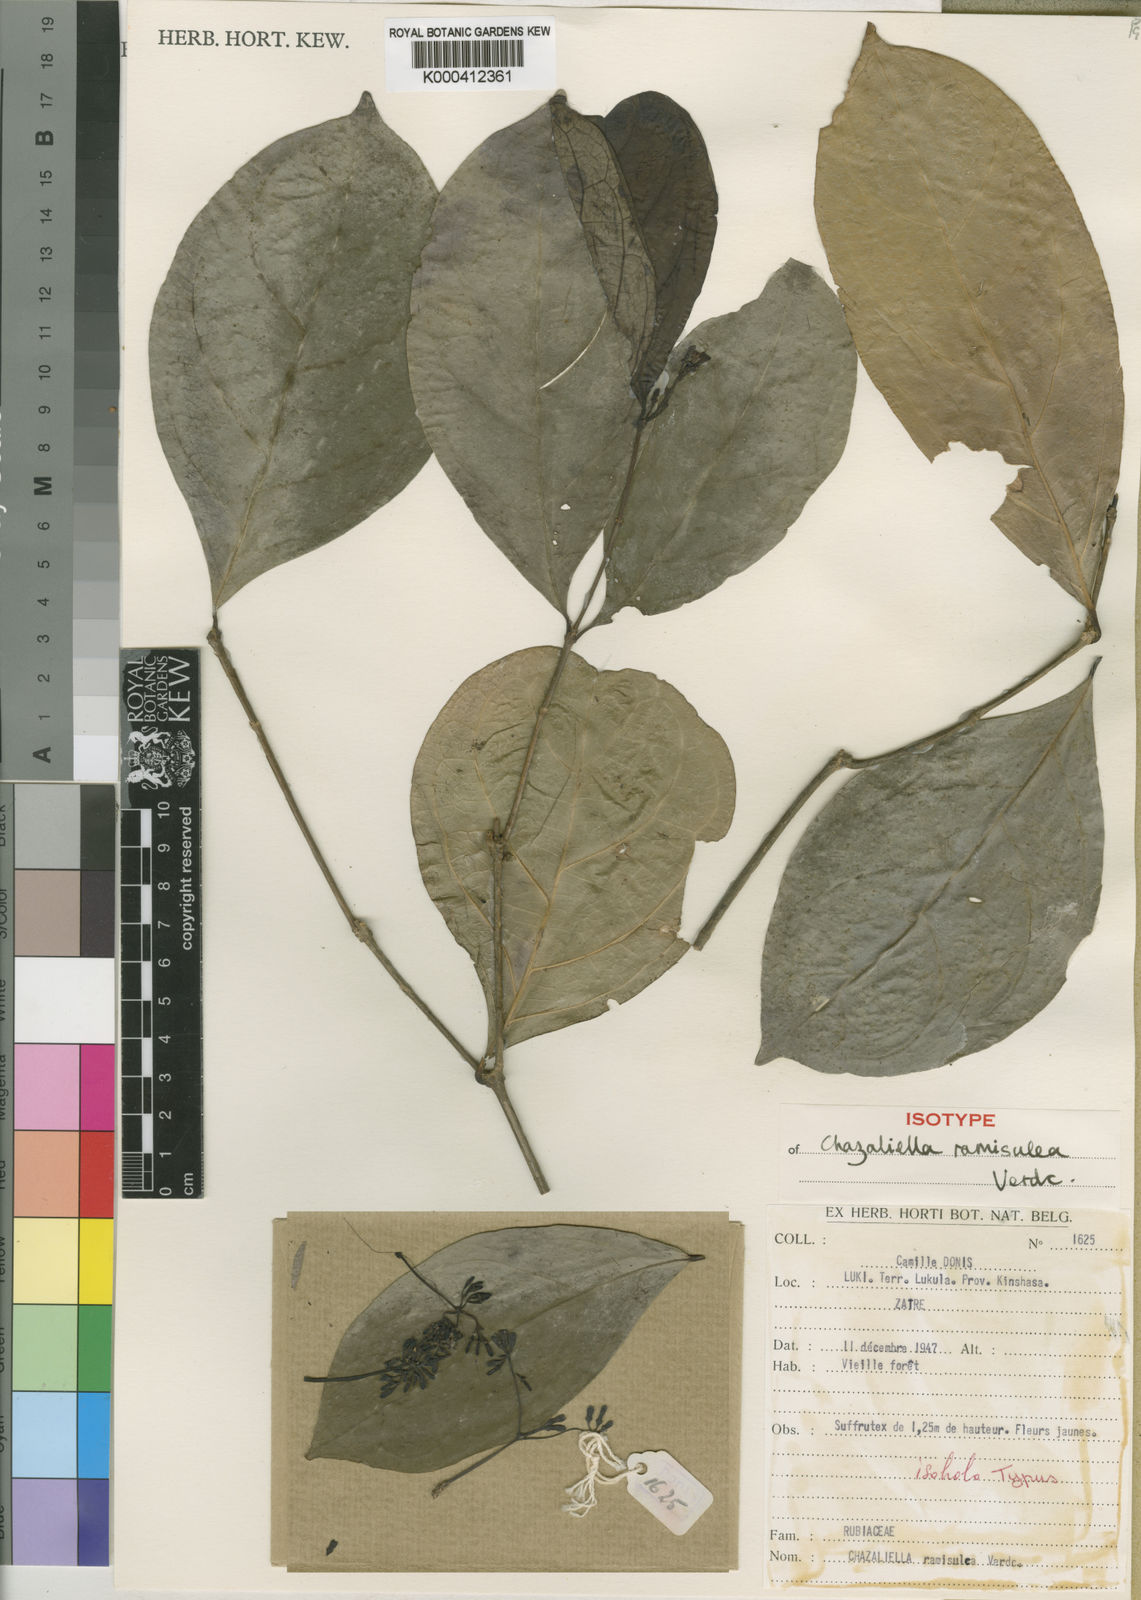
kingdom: Plantae
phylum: Tracheophyta
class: Magnoliopsida
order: Gentianales
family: Rubiaceae
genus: Eumachia
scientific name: Eumachia ramisulca
